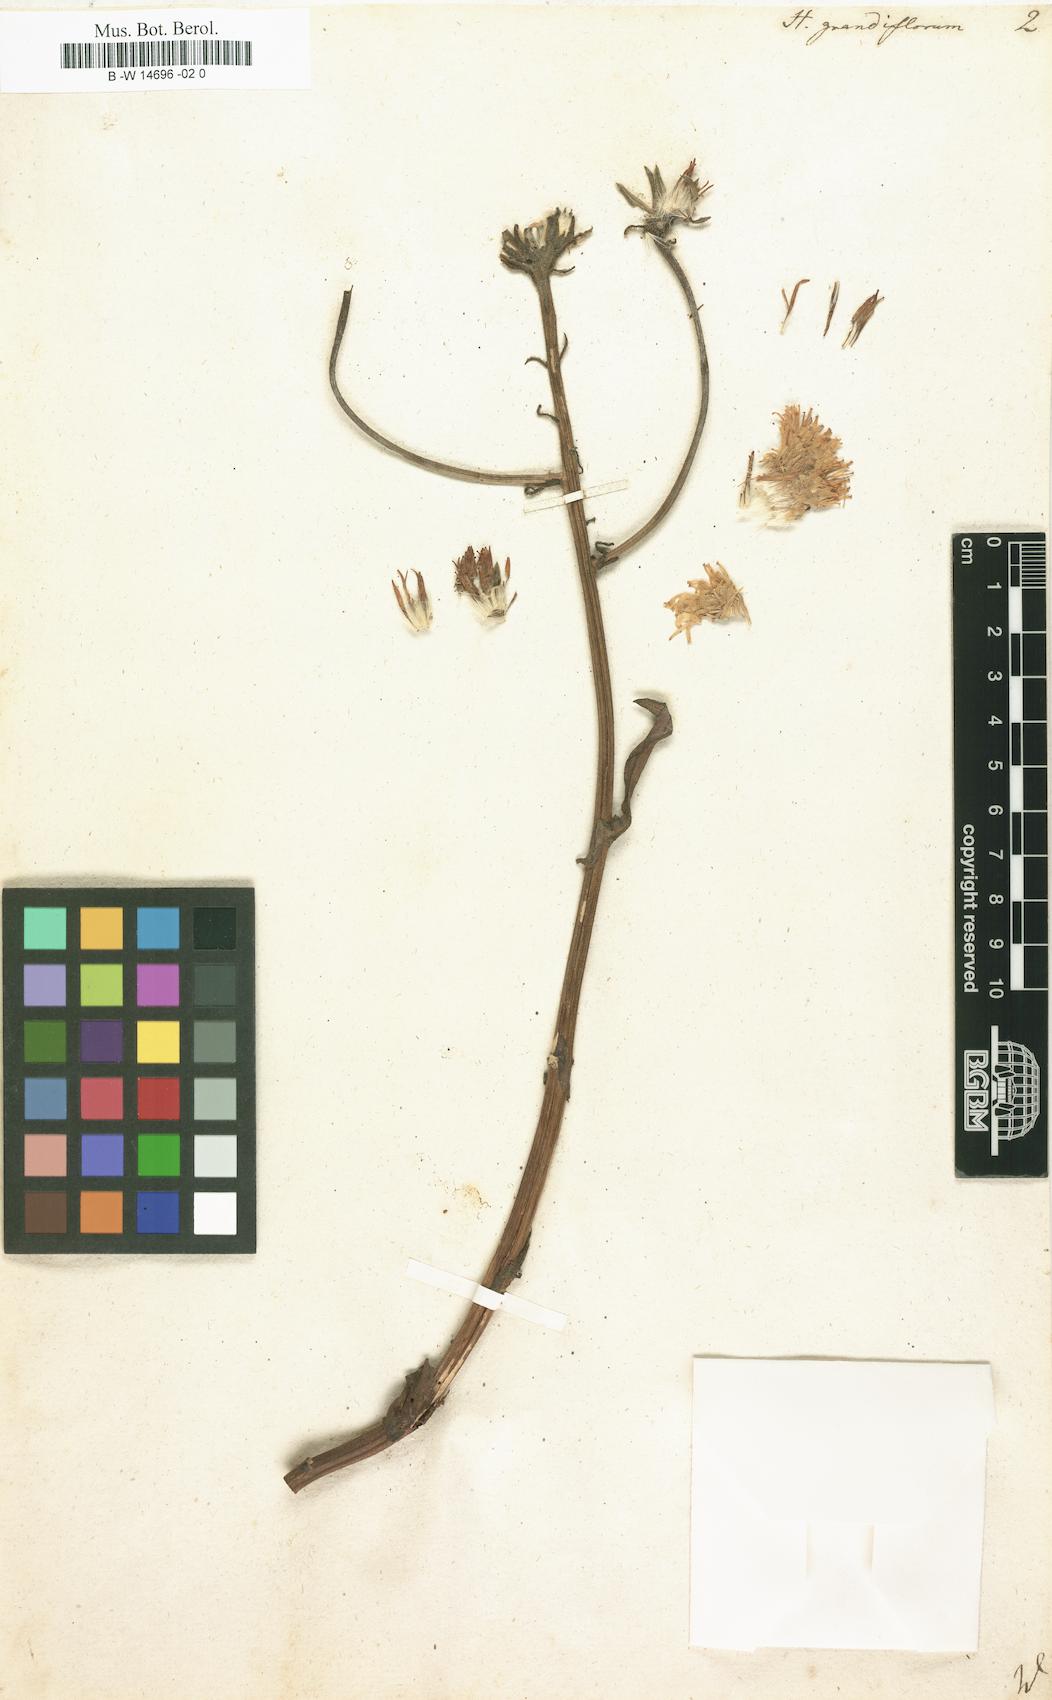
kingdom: Plantae
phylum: Tracheophyta
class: Magnoliopsida
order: Asterales
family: Asteraceae
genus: Hieracium
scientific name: Hieracium grandiflorum
